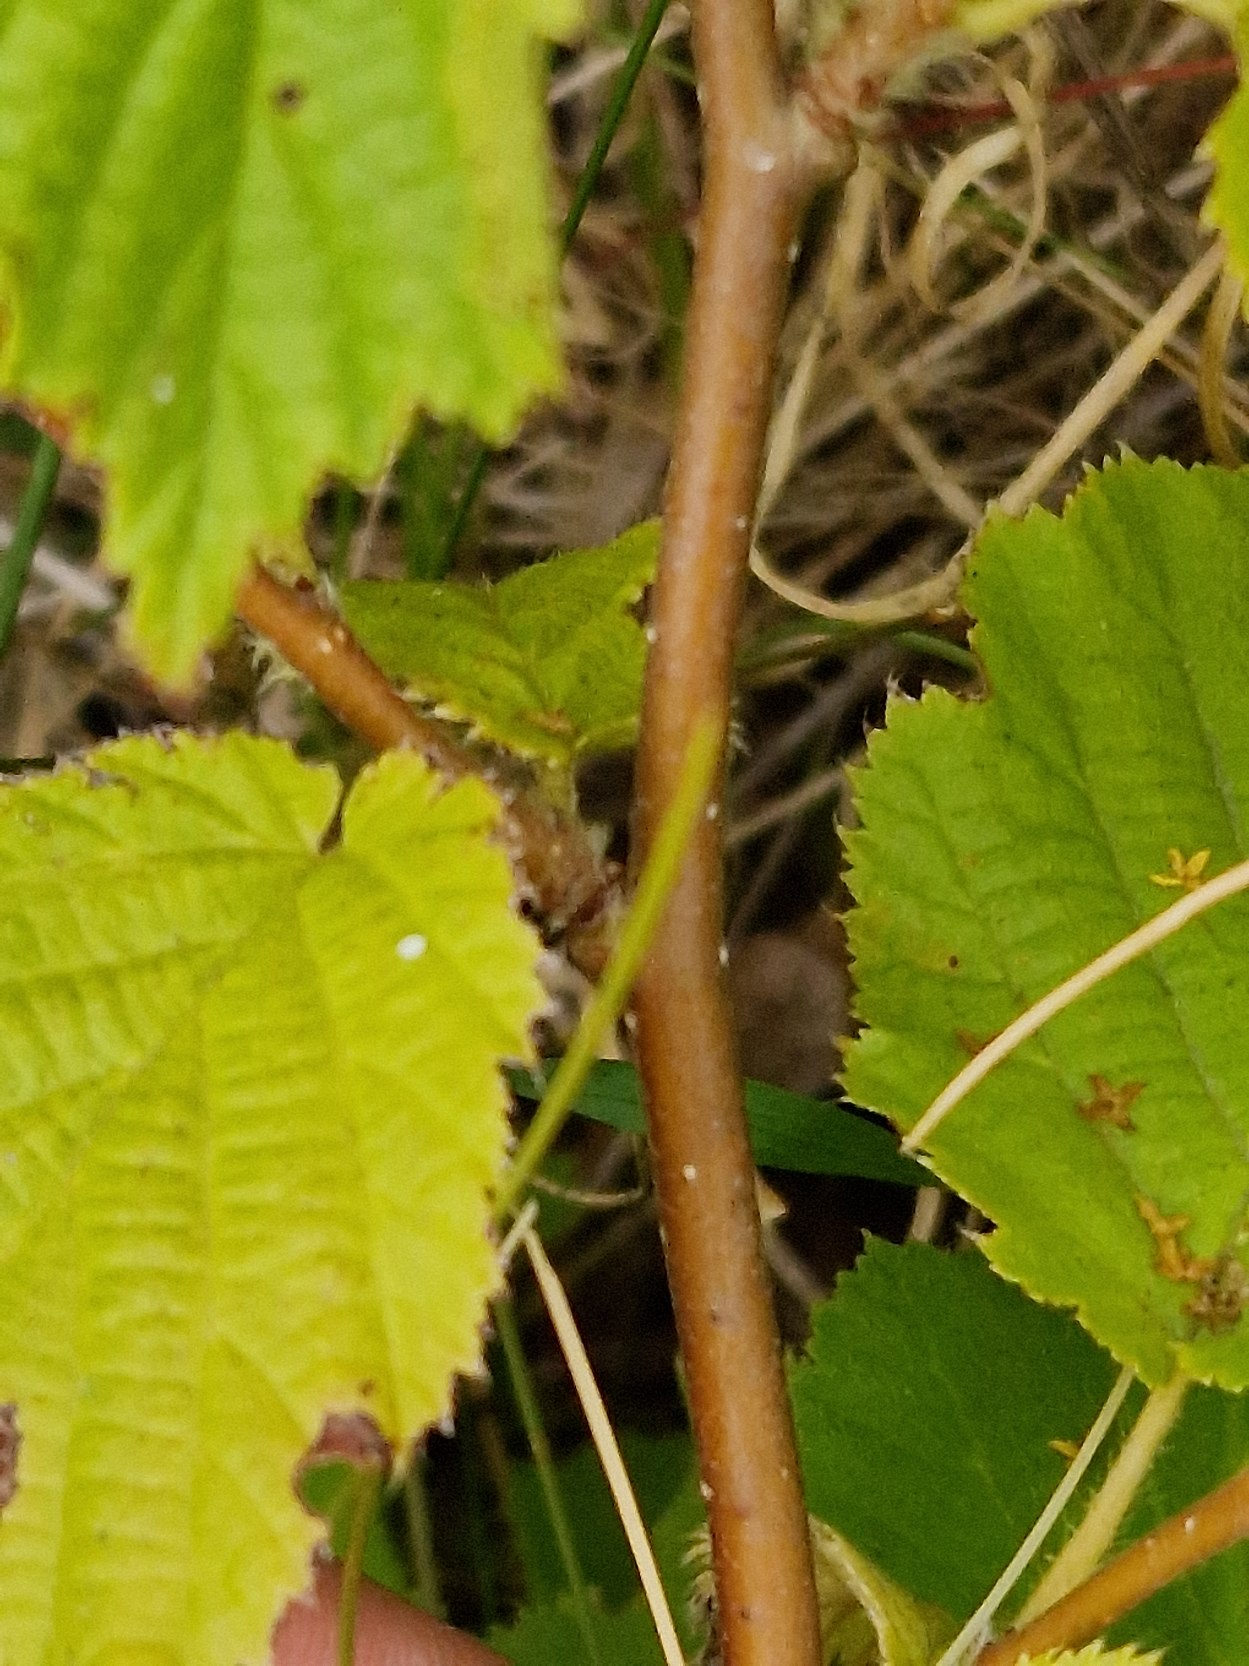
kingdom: Plantae
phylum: Tracheophyta
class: Magnoliopsida
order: Fagales
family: Betulaceae
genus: Corylus
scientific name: Corylus avellana
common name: Hassel
